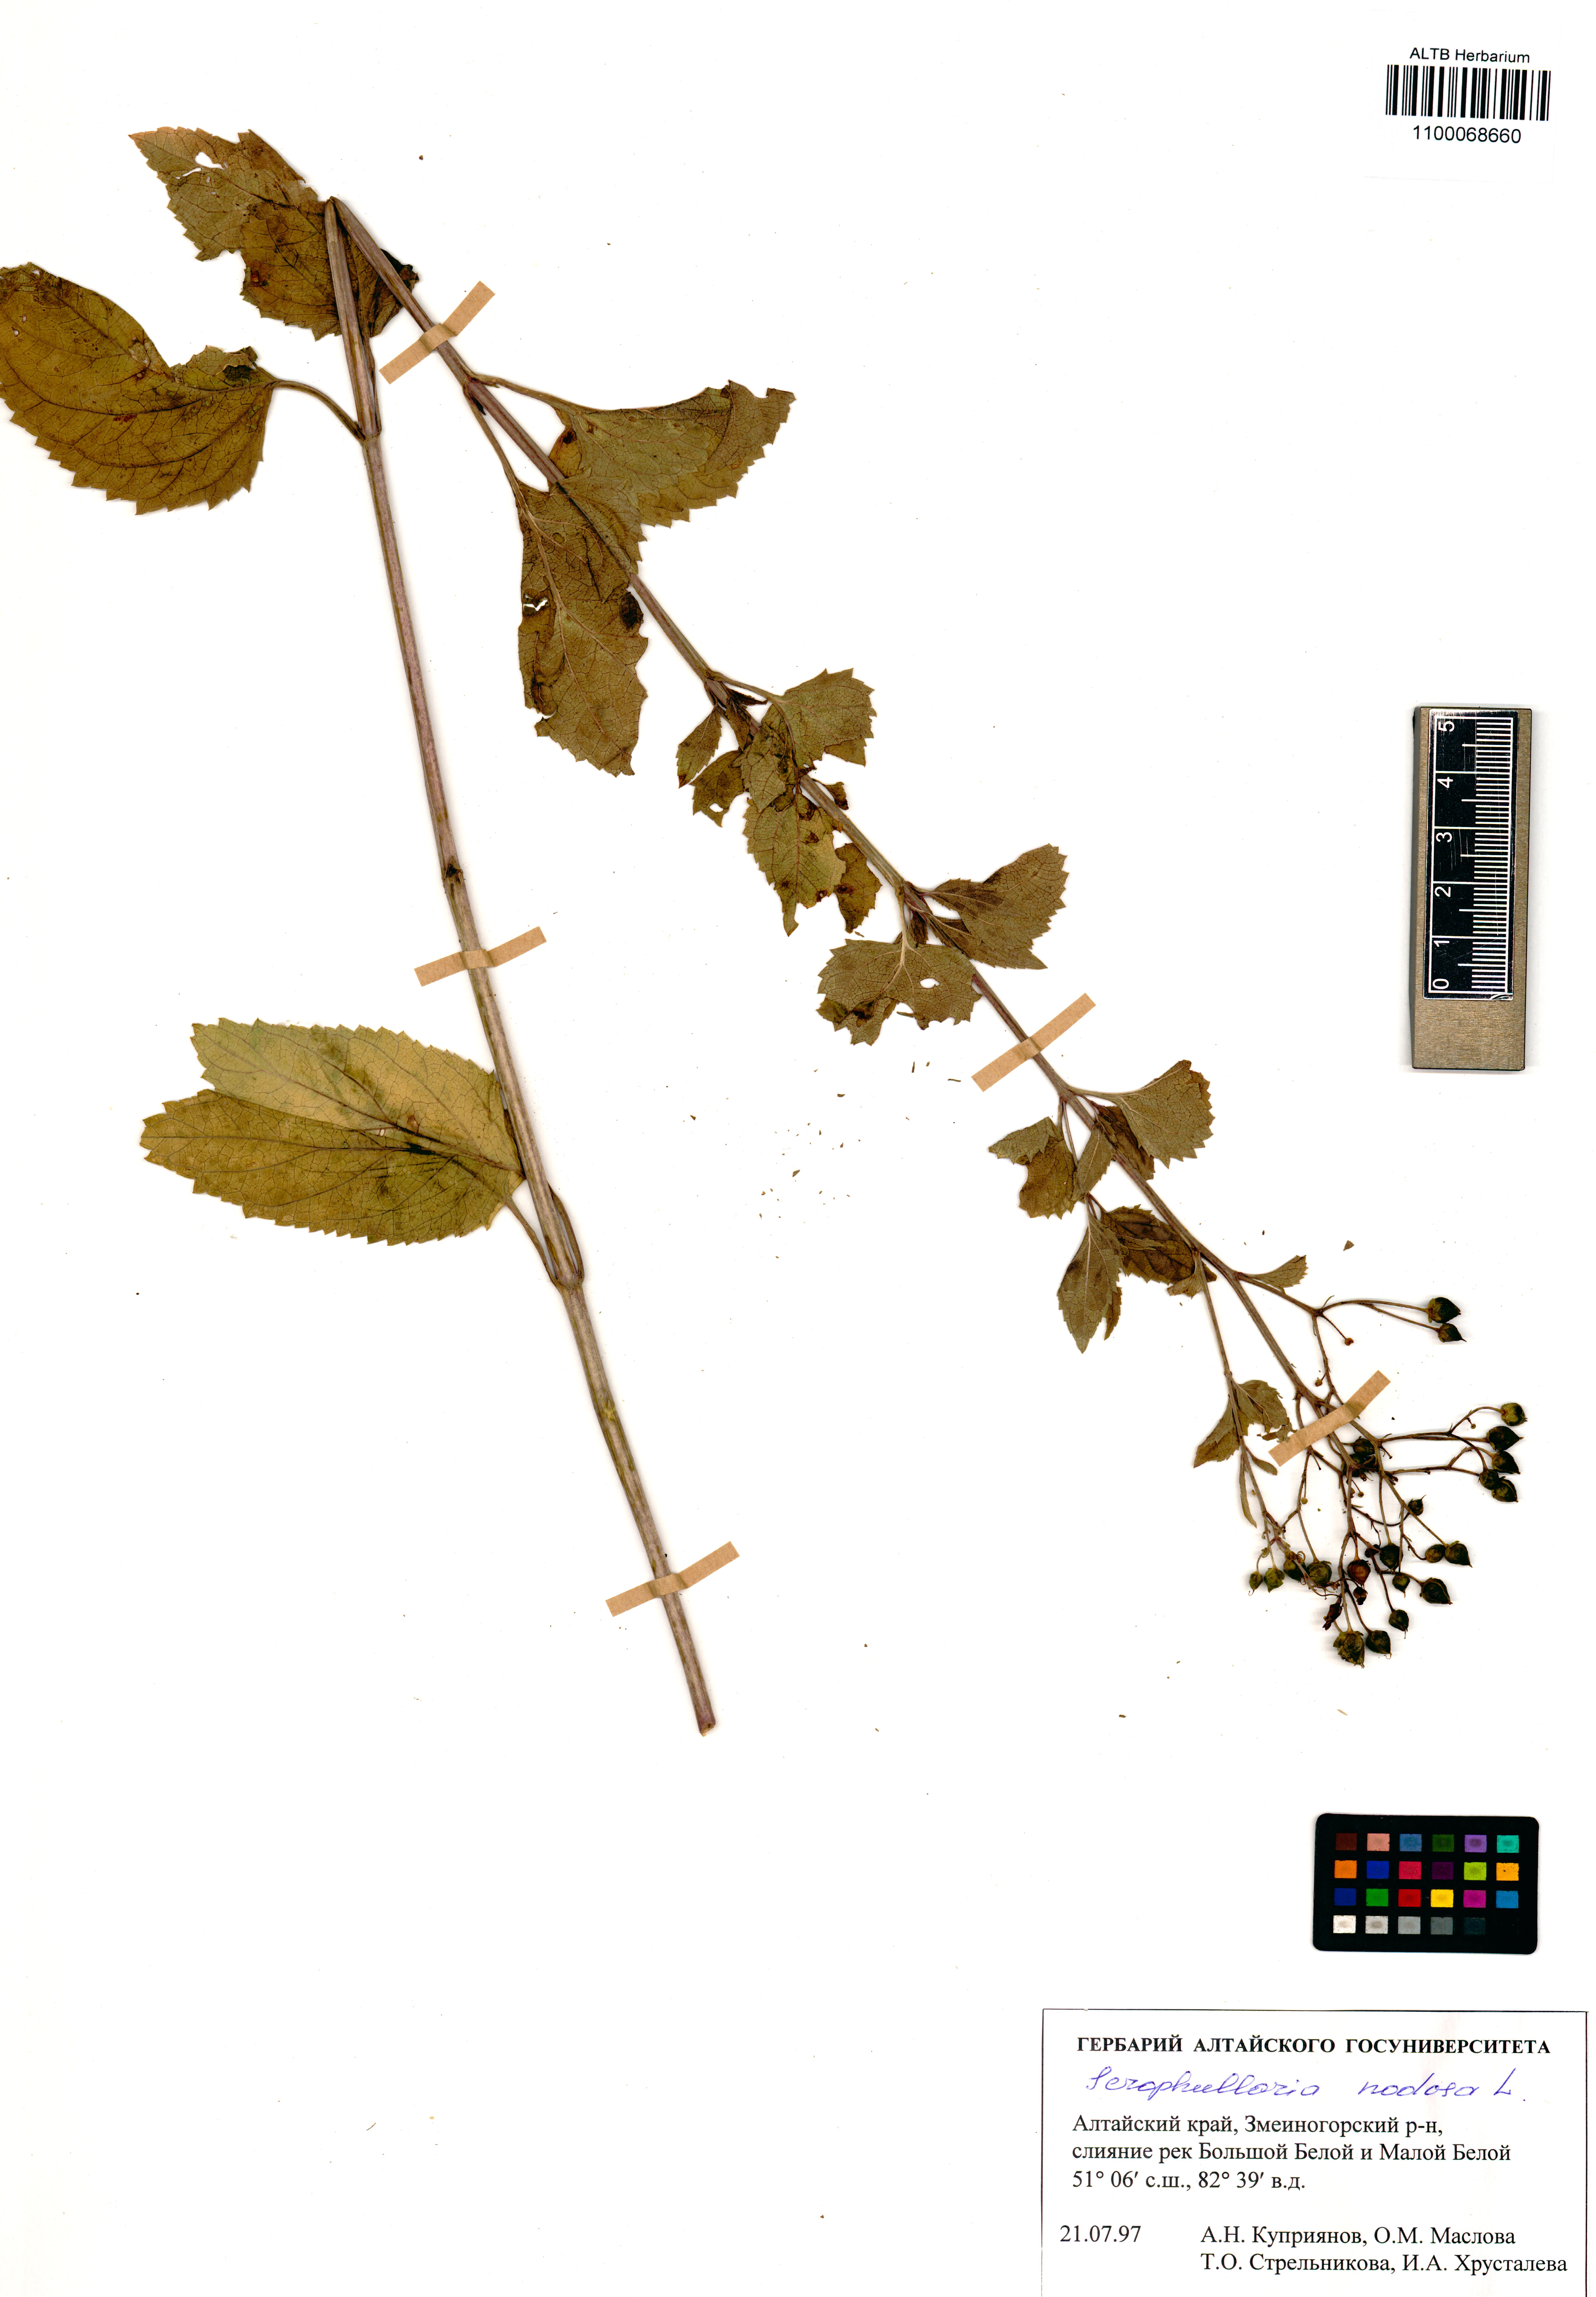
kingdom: Plantae
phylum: Tracheophyta
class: Magnoliopsida
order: Lamiales
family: Scrophulariaceae
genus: Scrophularia
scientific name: Scrophularia nodosa
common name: Common figwort
